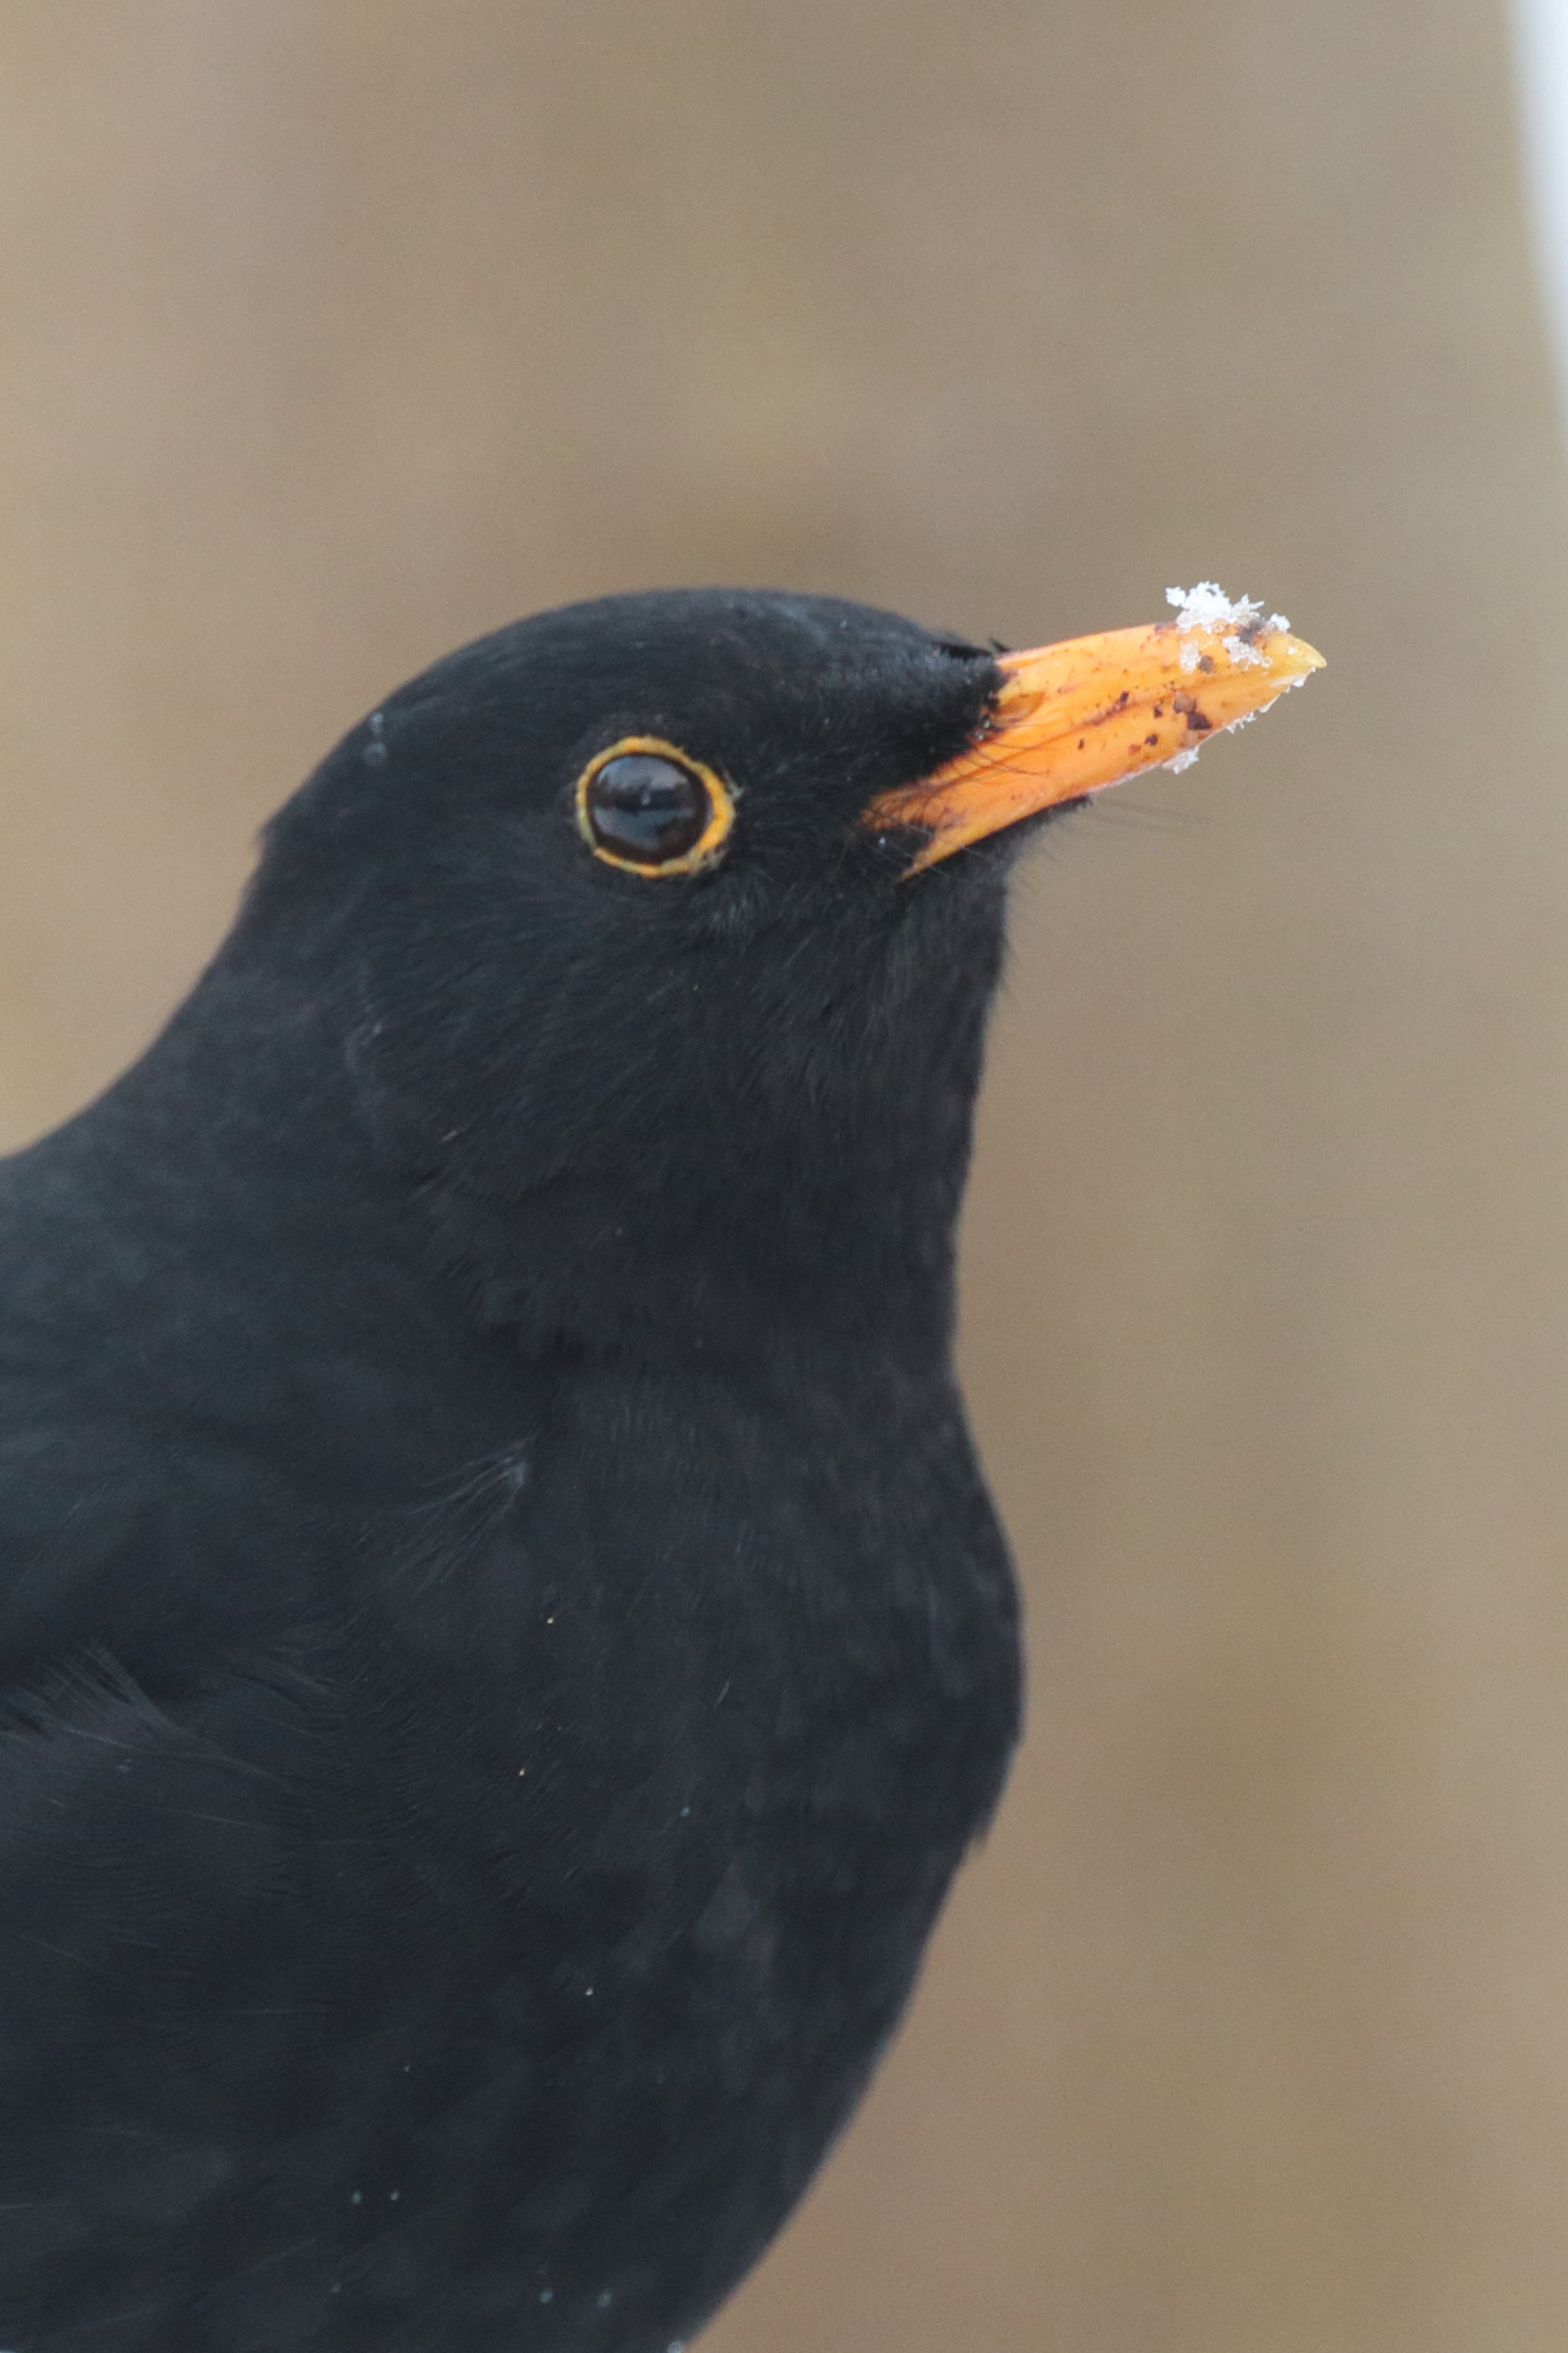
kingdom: Animalia
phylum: Chordata
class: Aves
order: Passeriformes
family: Turdidae
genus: Turdus
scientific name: Turdus merula
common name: Solsort
